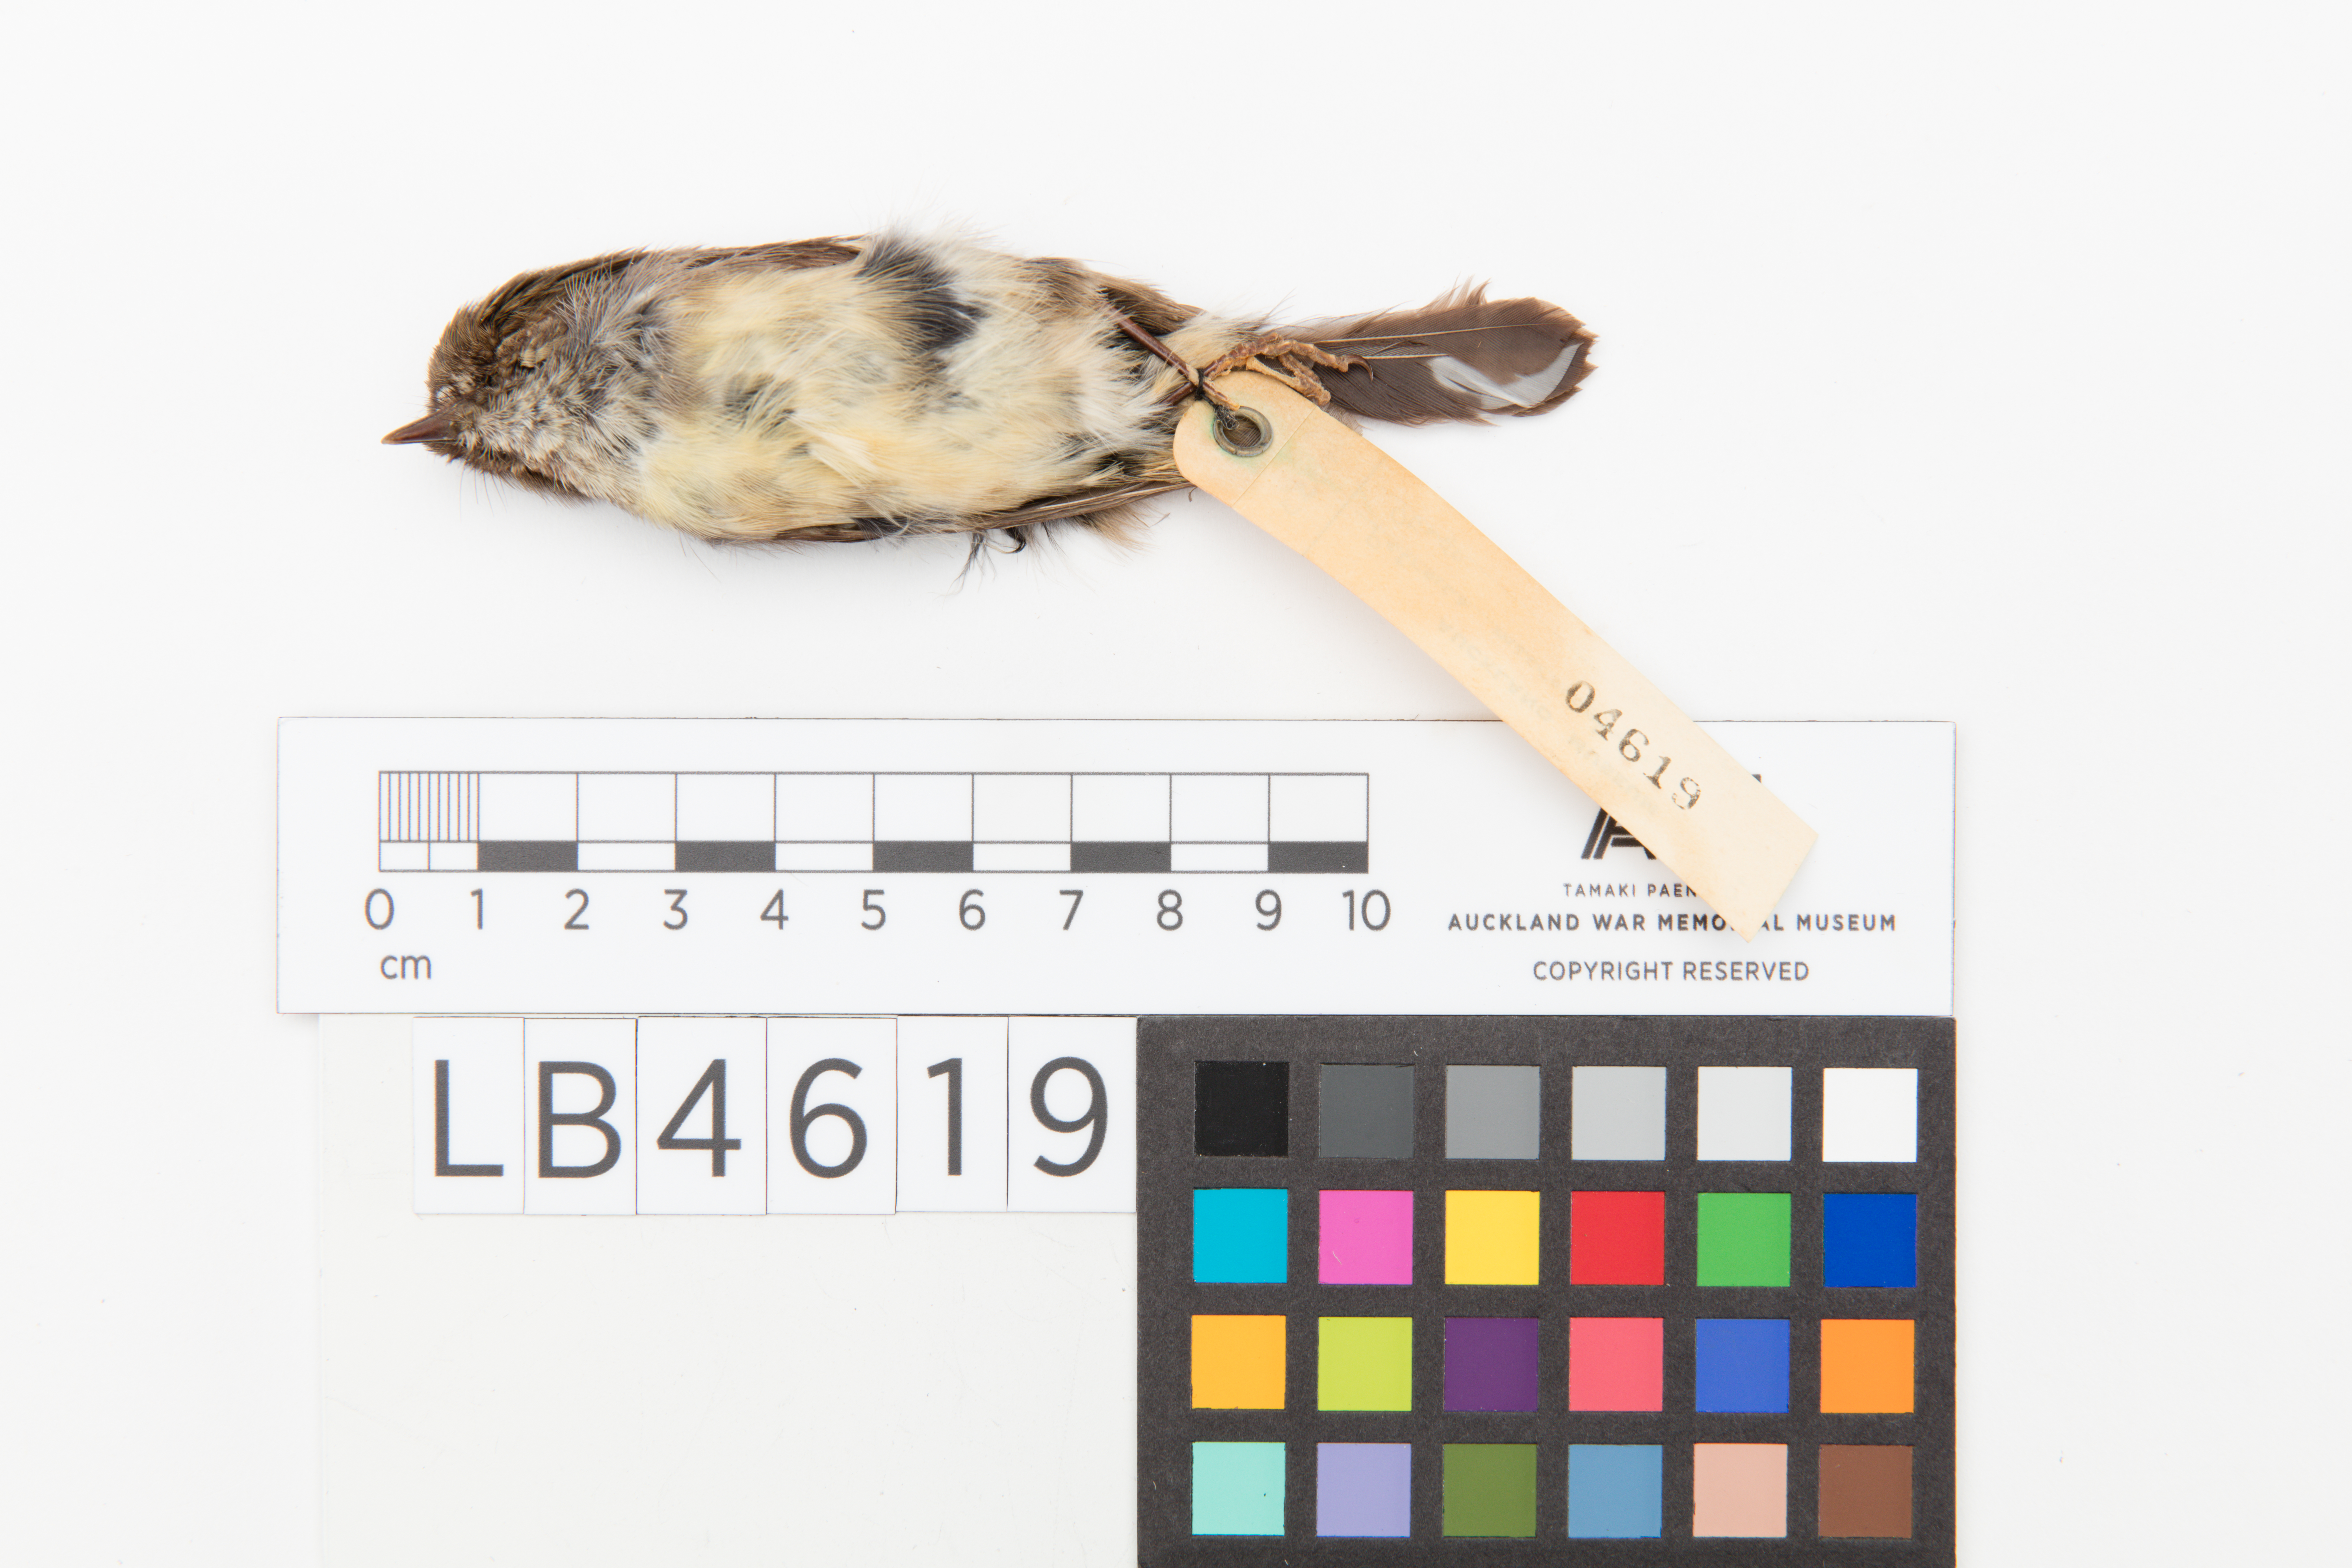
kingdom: Animalia
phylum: Chordata
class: Aves
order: Passeriformes
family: Petroicidae
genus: Petroica
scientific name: Petroica macrocephala
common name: Tomtit
